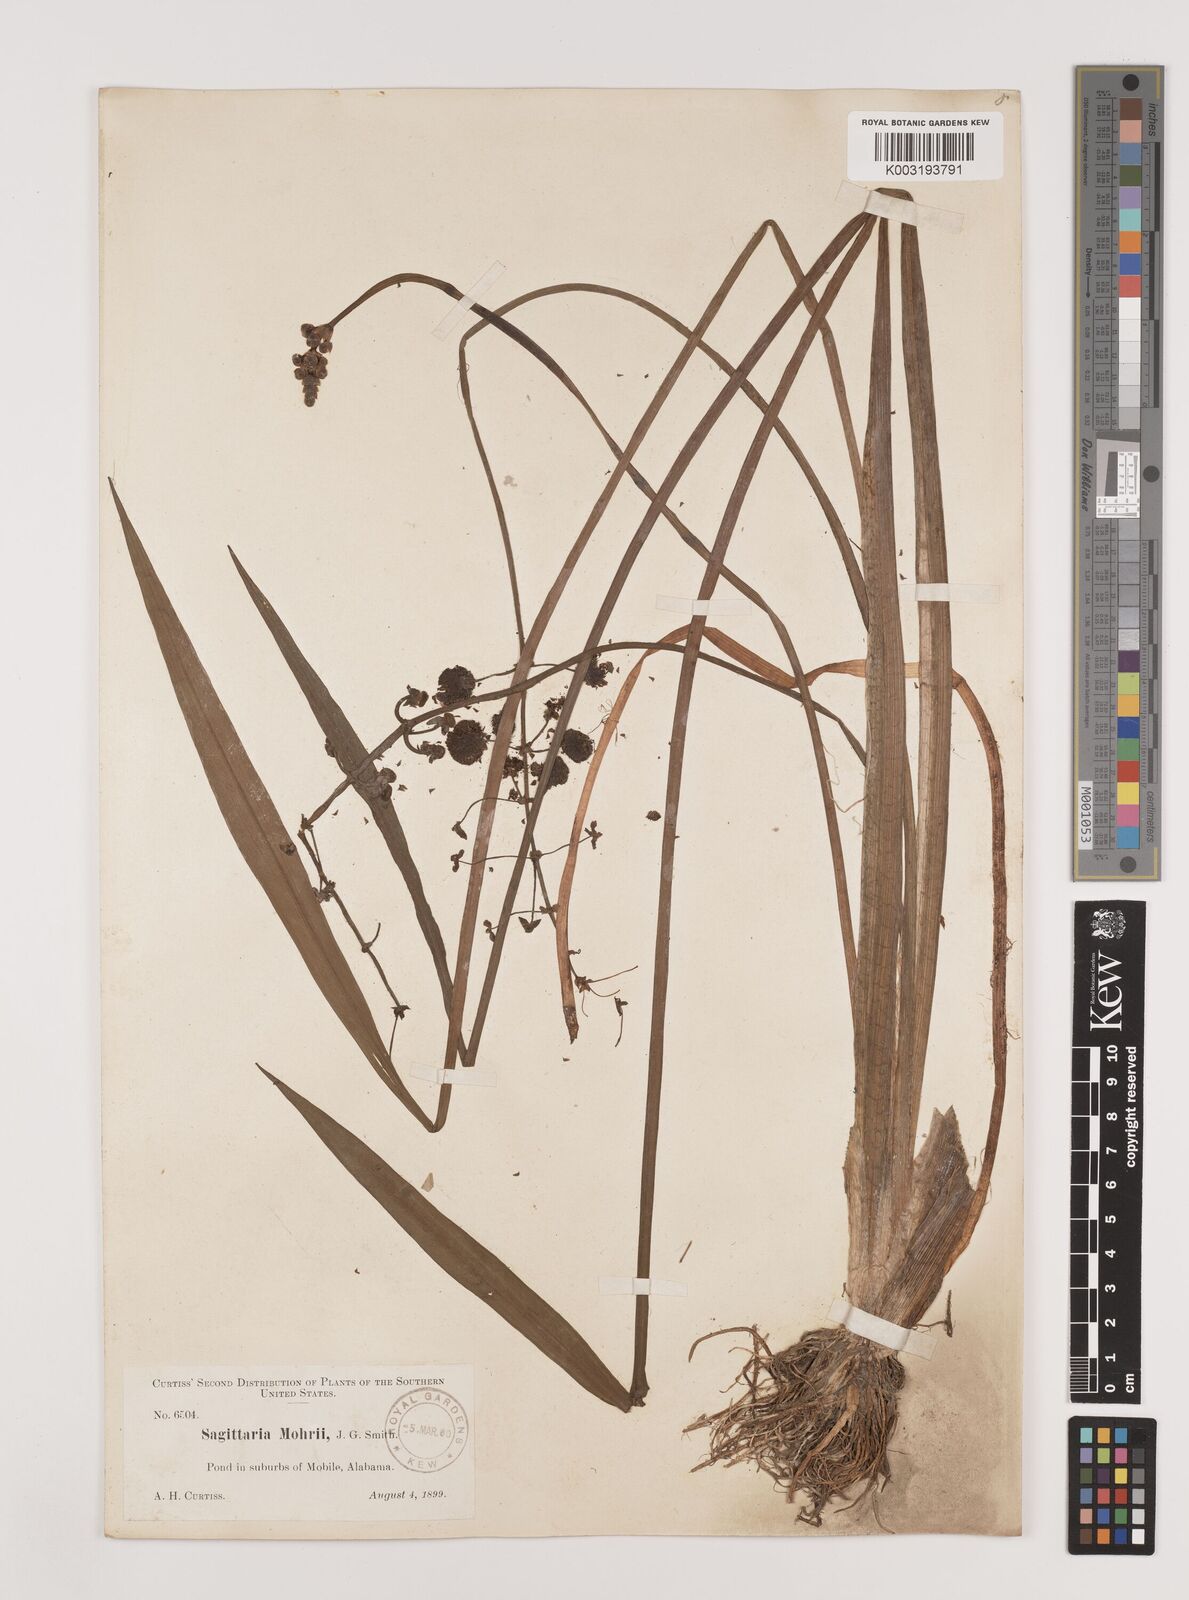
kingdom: Plantae
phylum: Tracheophyta
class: Liliopsida
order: Alismatales
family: Alismataceae
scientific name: Alismataceae
